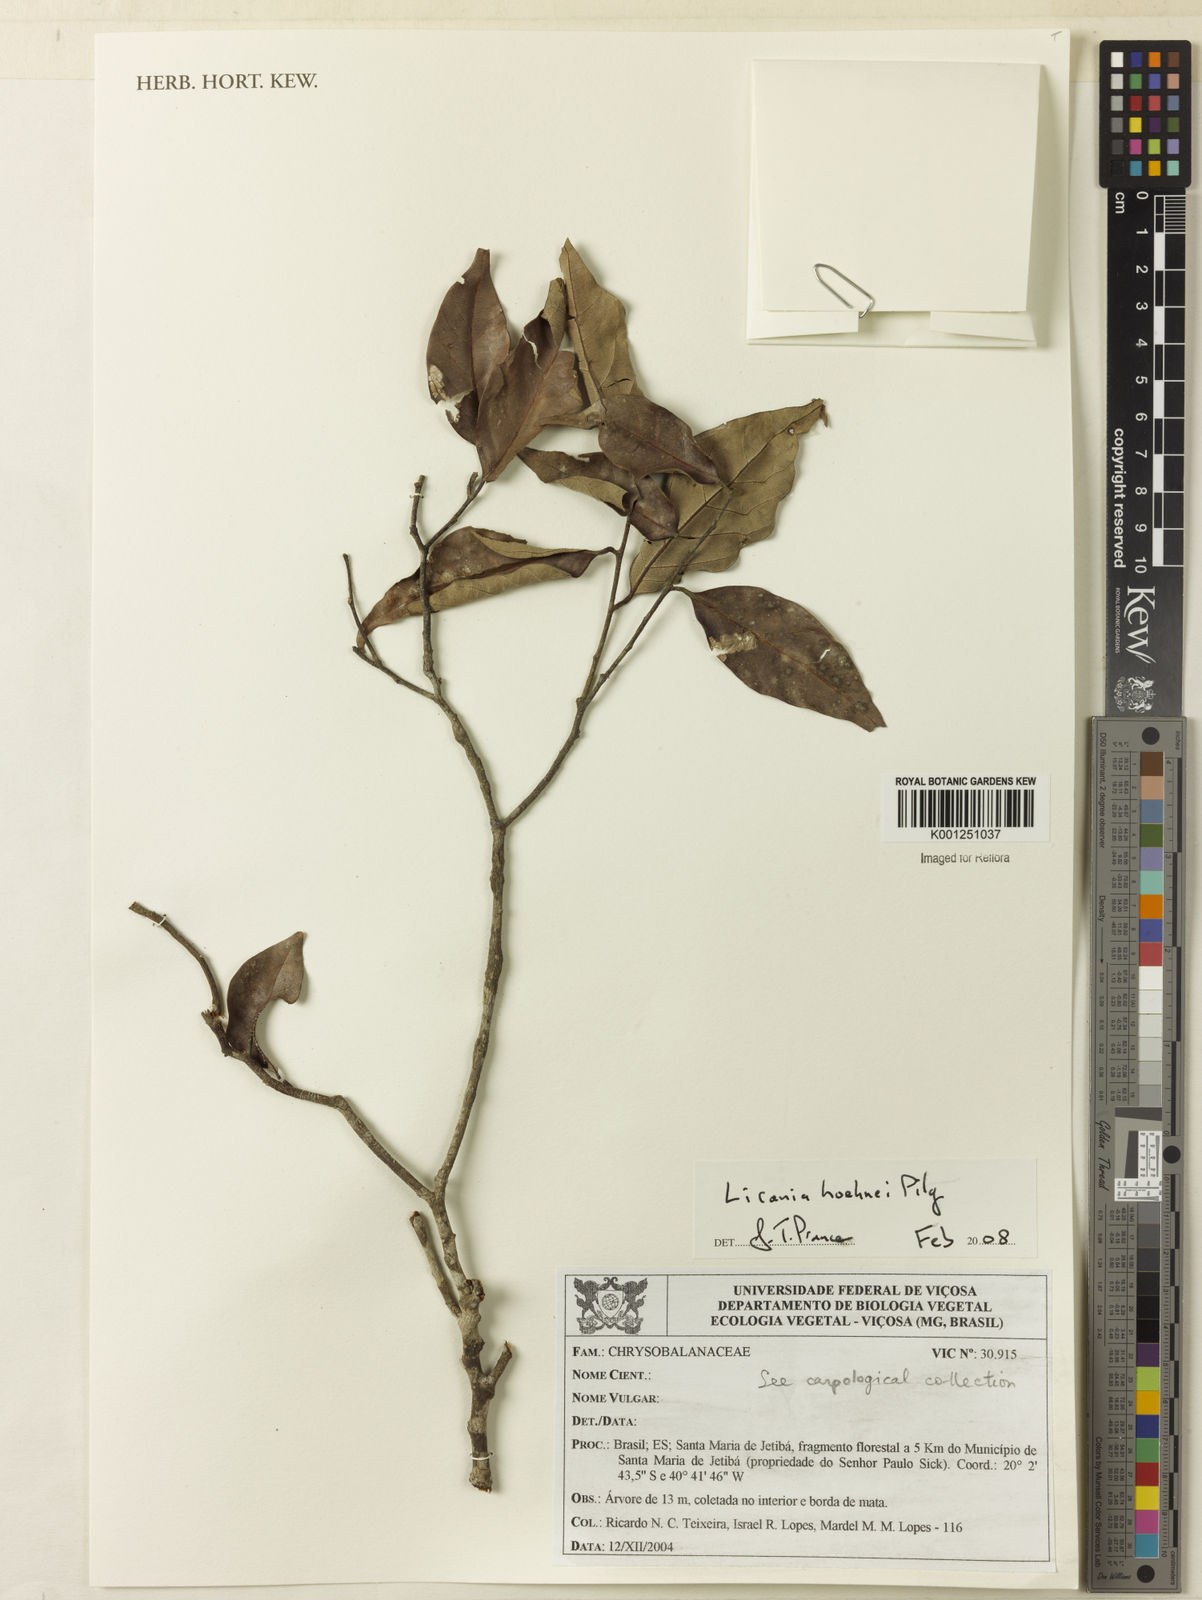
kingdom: Plantae
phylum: Tracheophyta
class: Magnoliopsida
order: Malpighiales
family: Chrysobalanaceae
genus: Licania
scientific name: Licania areolata
